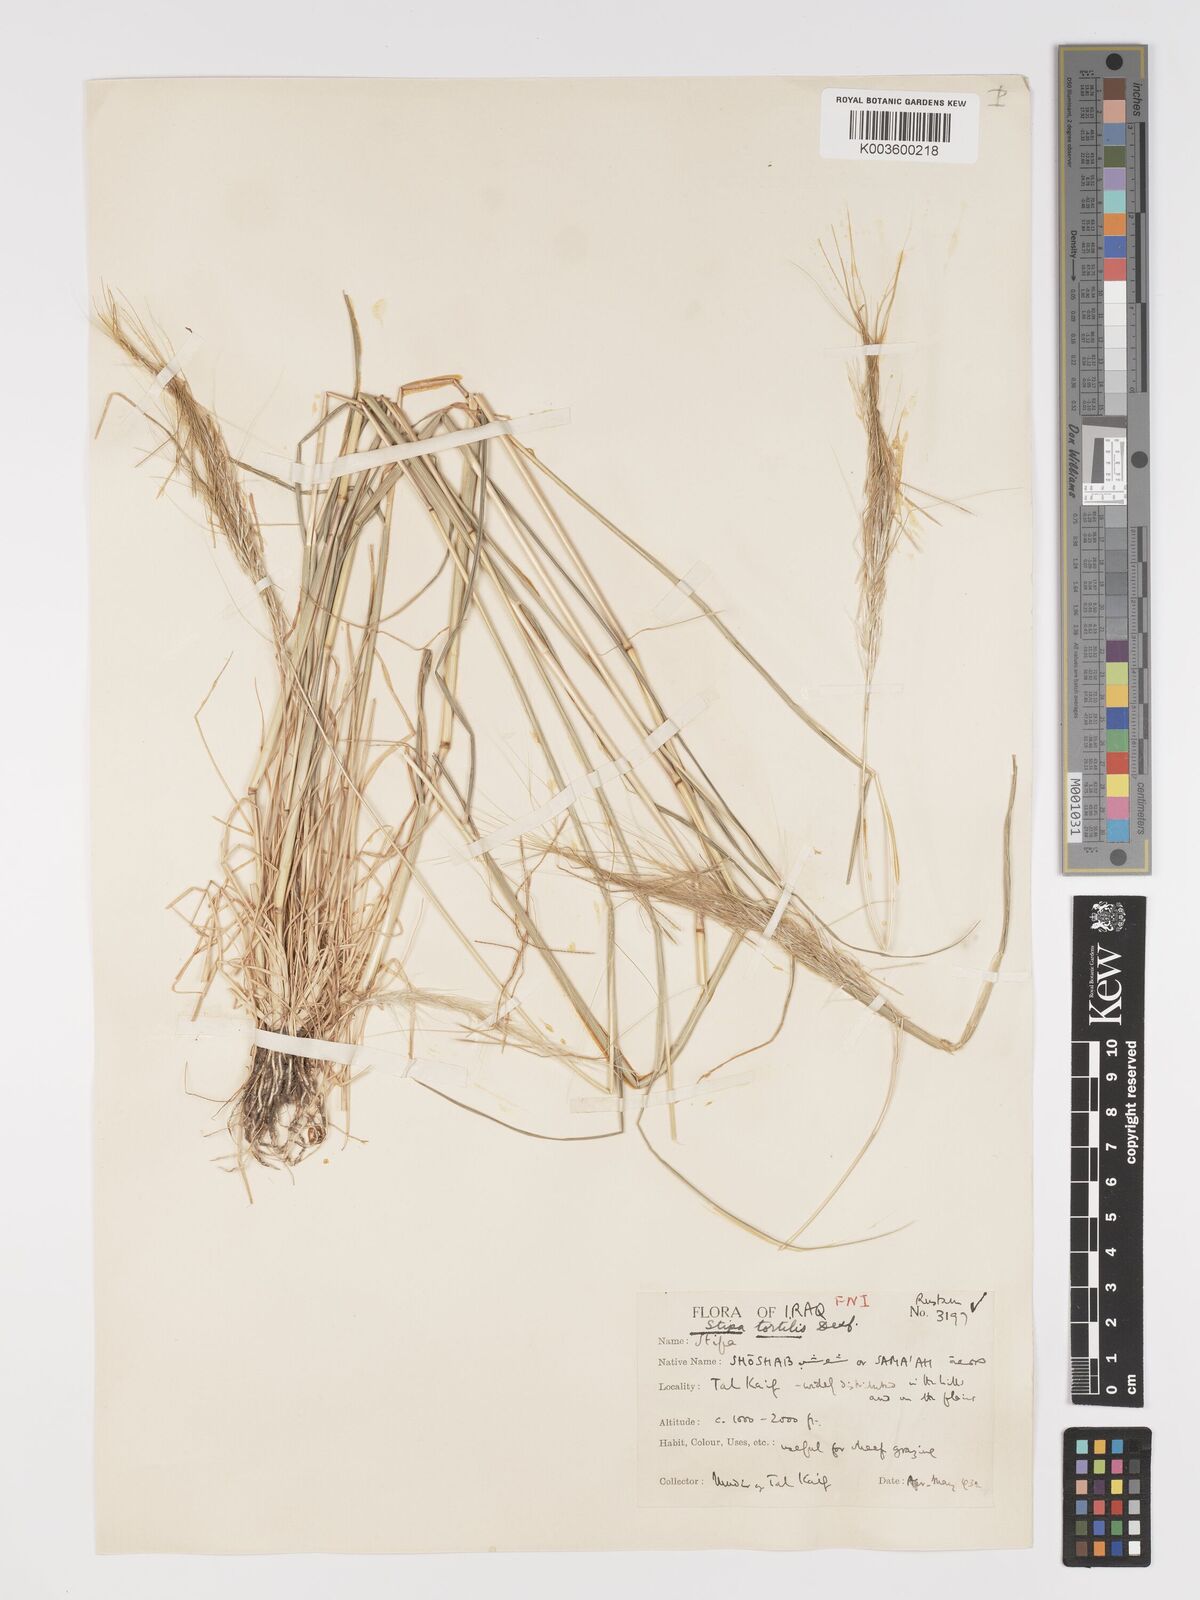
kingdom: Plantae
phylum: Tracheophyta
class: Liliopsida
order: Poales
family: Poaceae
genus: Stipellula
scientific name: Stipellula capensis
